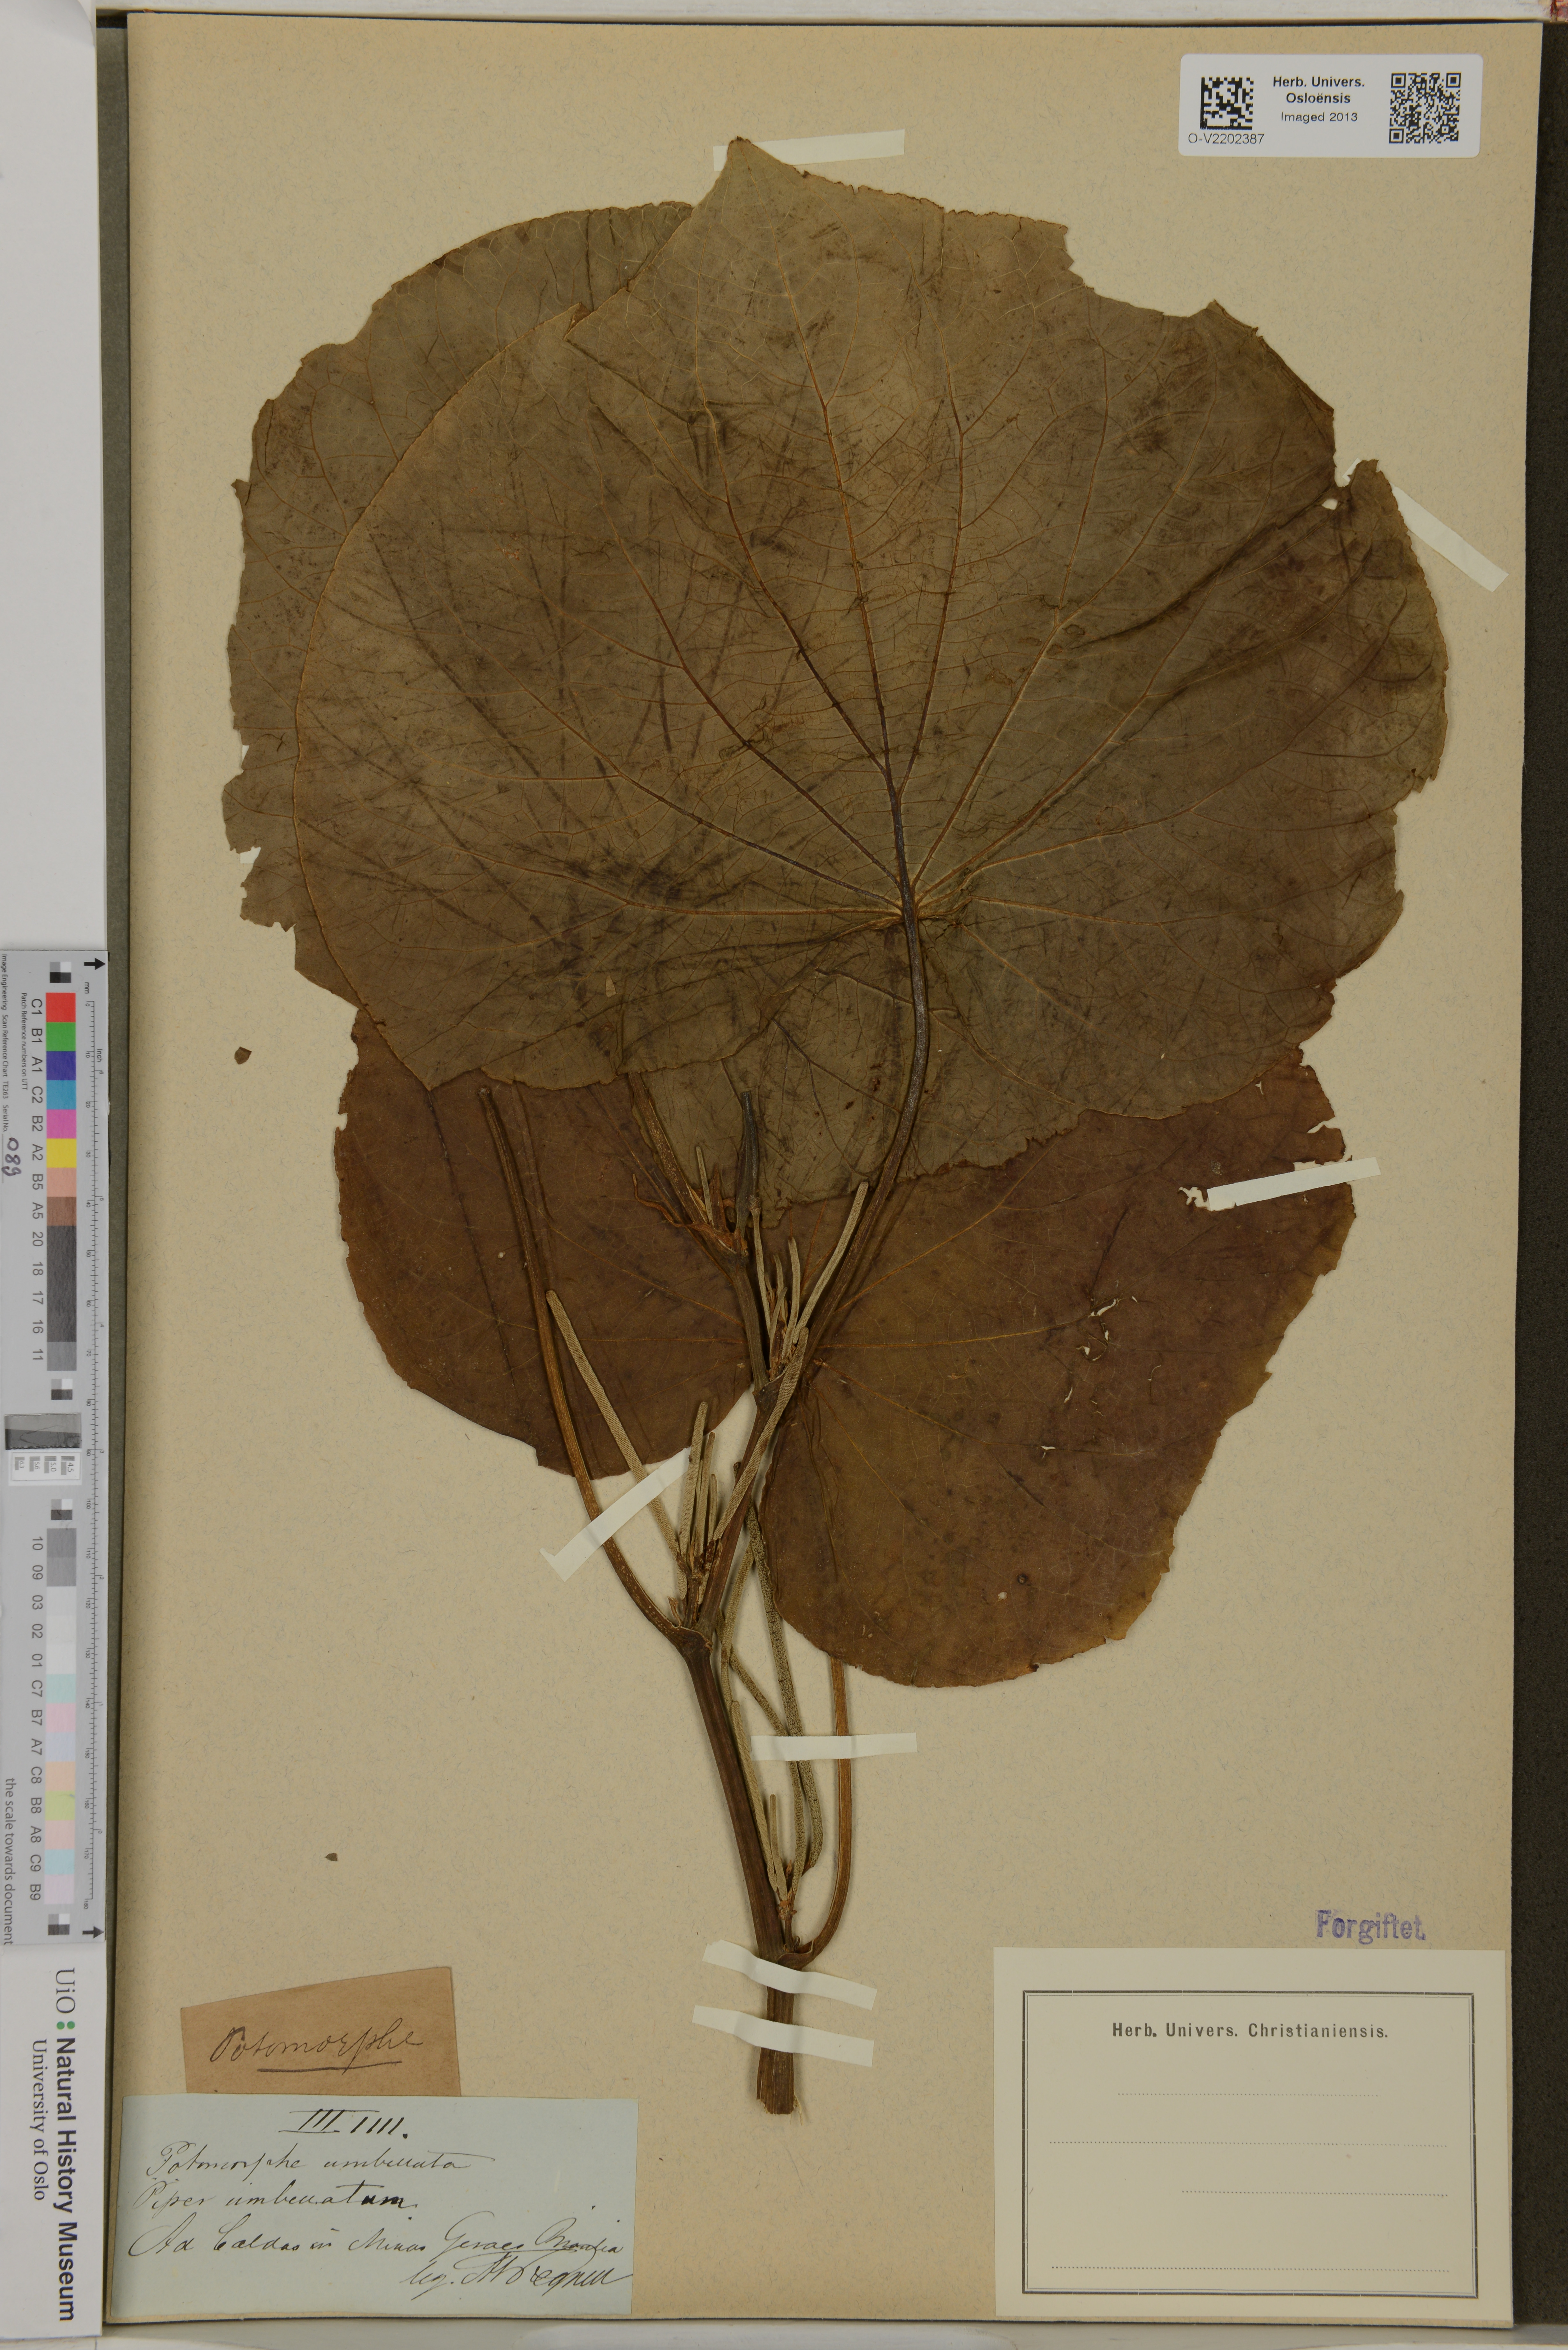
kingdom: Plantae
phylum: Tracheophyta
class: Magnoliopsida
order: Piperales
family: Piperaceae
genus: Piper
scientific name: Piper umbellatum
